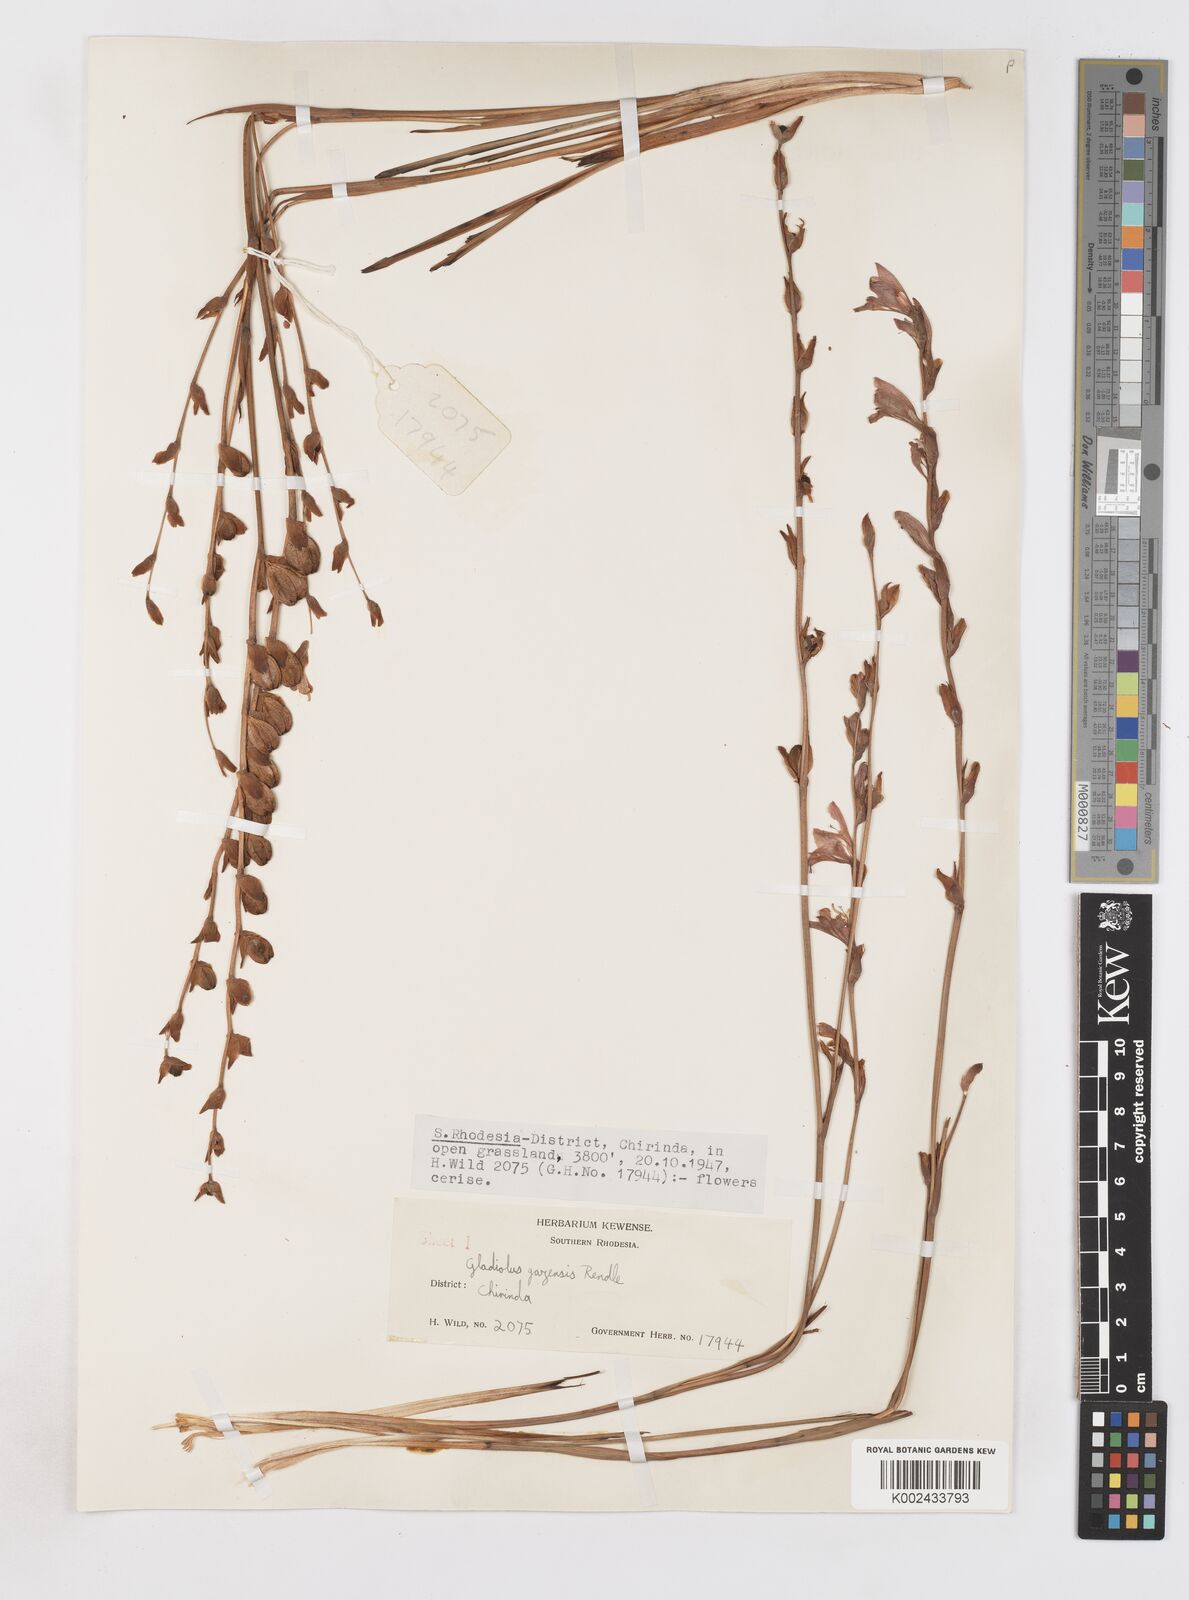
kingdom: Plantae
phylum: Tracheophyta
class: Liliopsida
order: Asparagales
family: Iridaceae
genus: Gladiolus
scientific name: Gladiolus crassifolius
